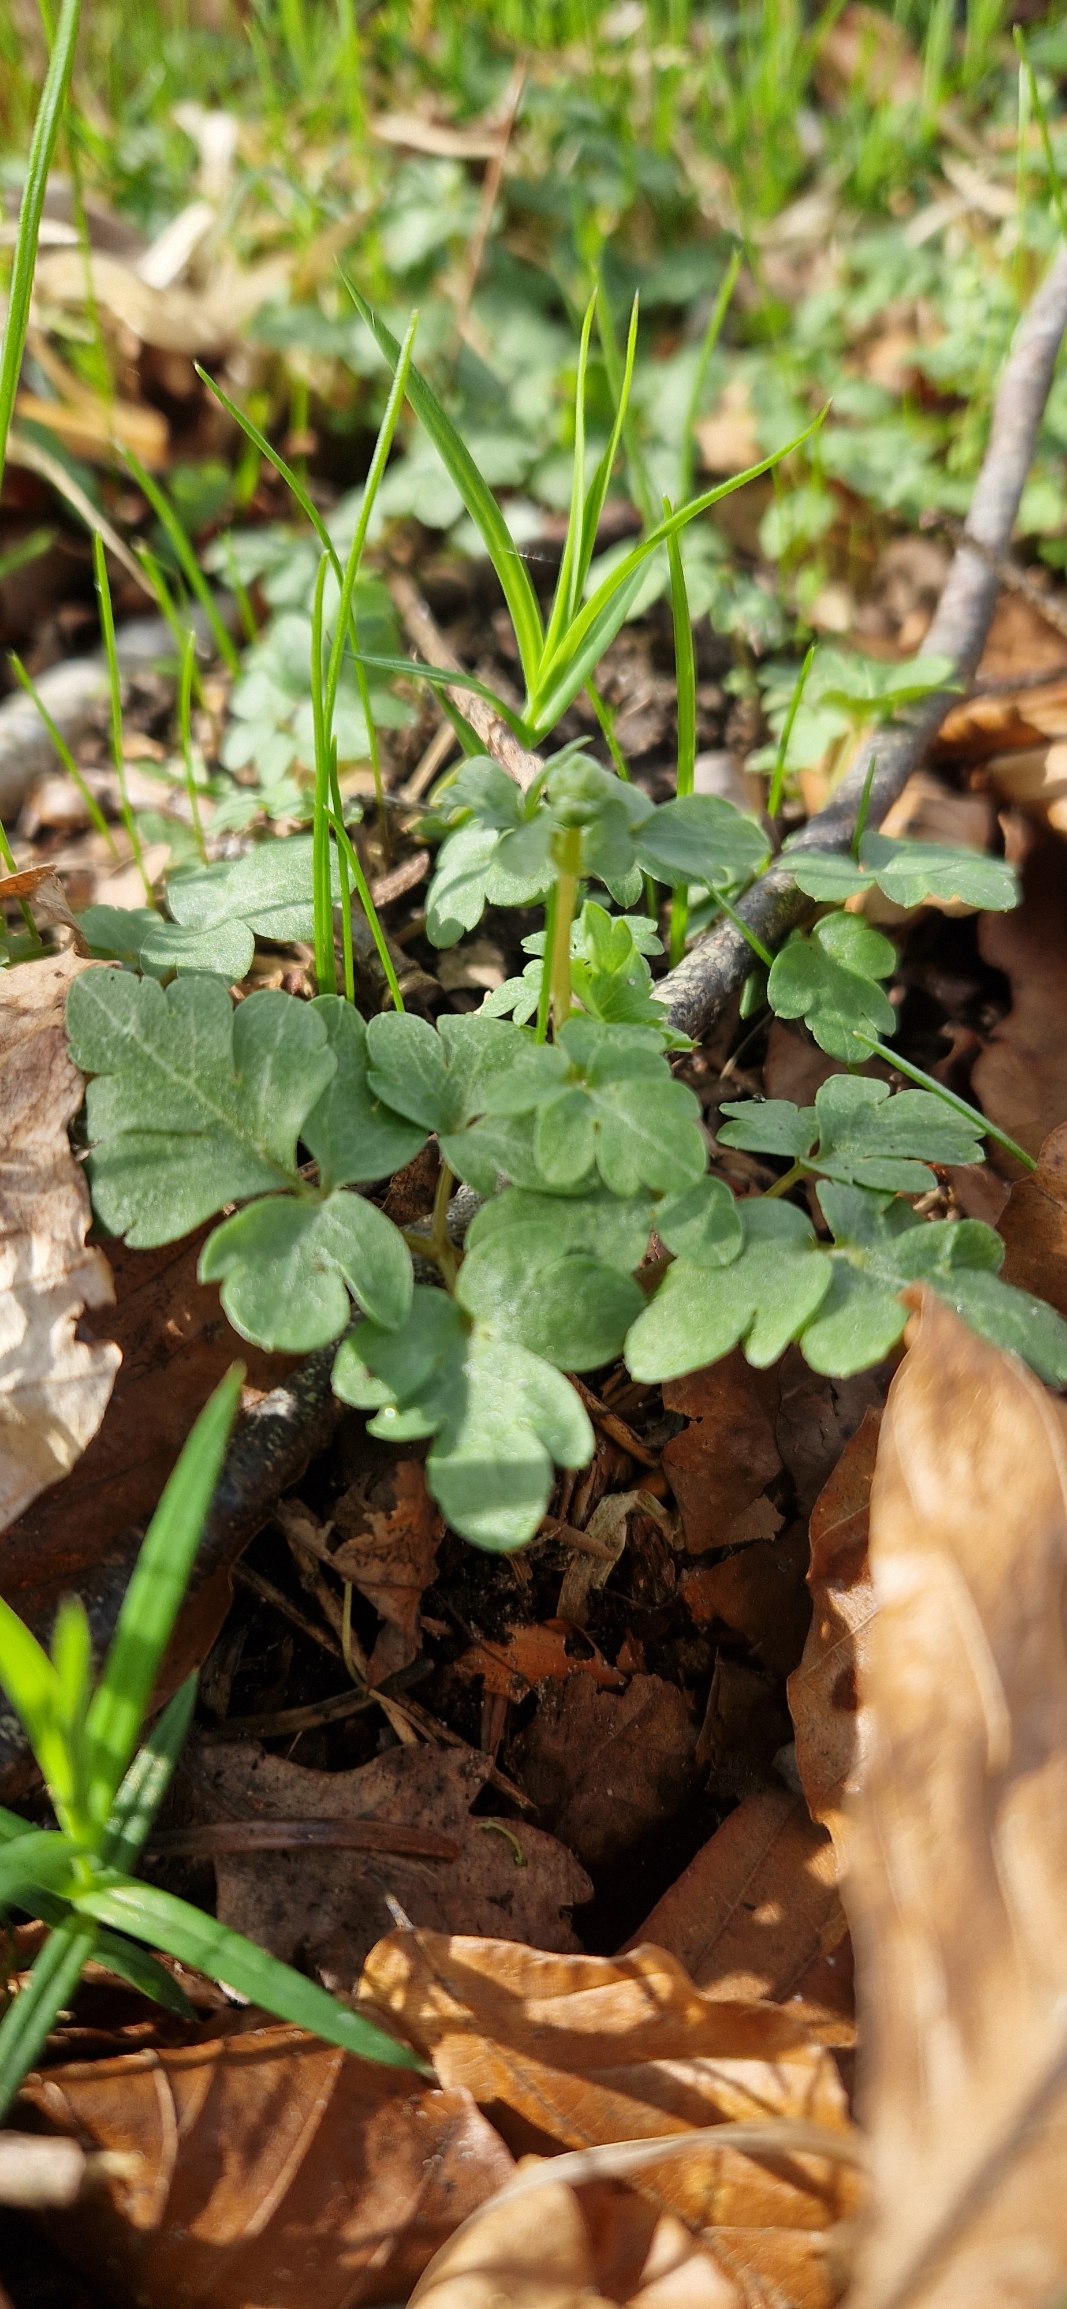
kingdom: Plantae
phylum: Tracheophyta
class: Magnoliopsida
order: Dipsacales
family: Viburnaceae
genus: Adoxa
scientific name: Adoxa moschatellina
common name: Desmerurt
